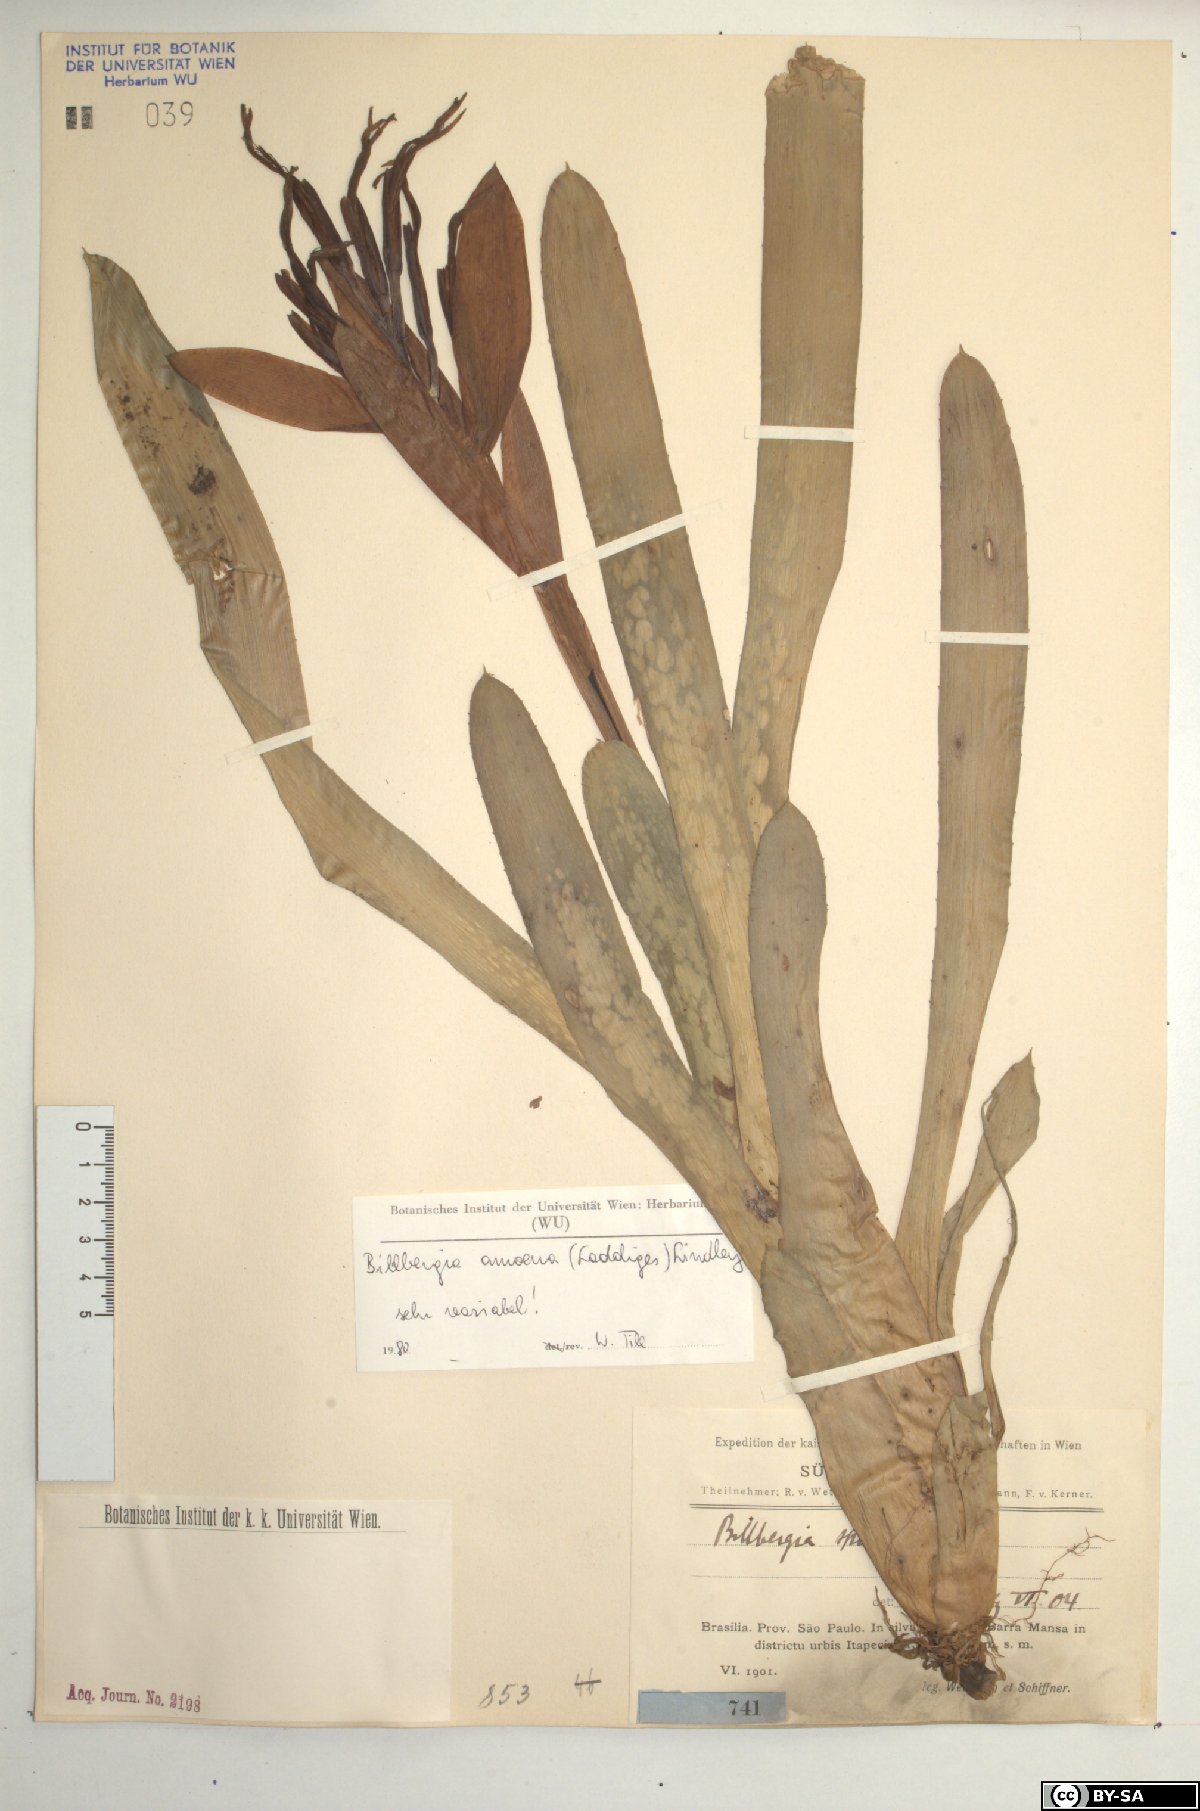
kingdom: Plantae
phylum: Tracheophyta
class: Liliopsida
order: Poales
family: Bromeliaceae
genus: Billbergia
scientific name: Billbergia amoena
